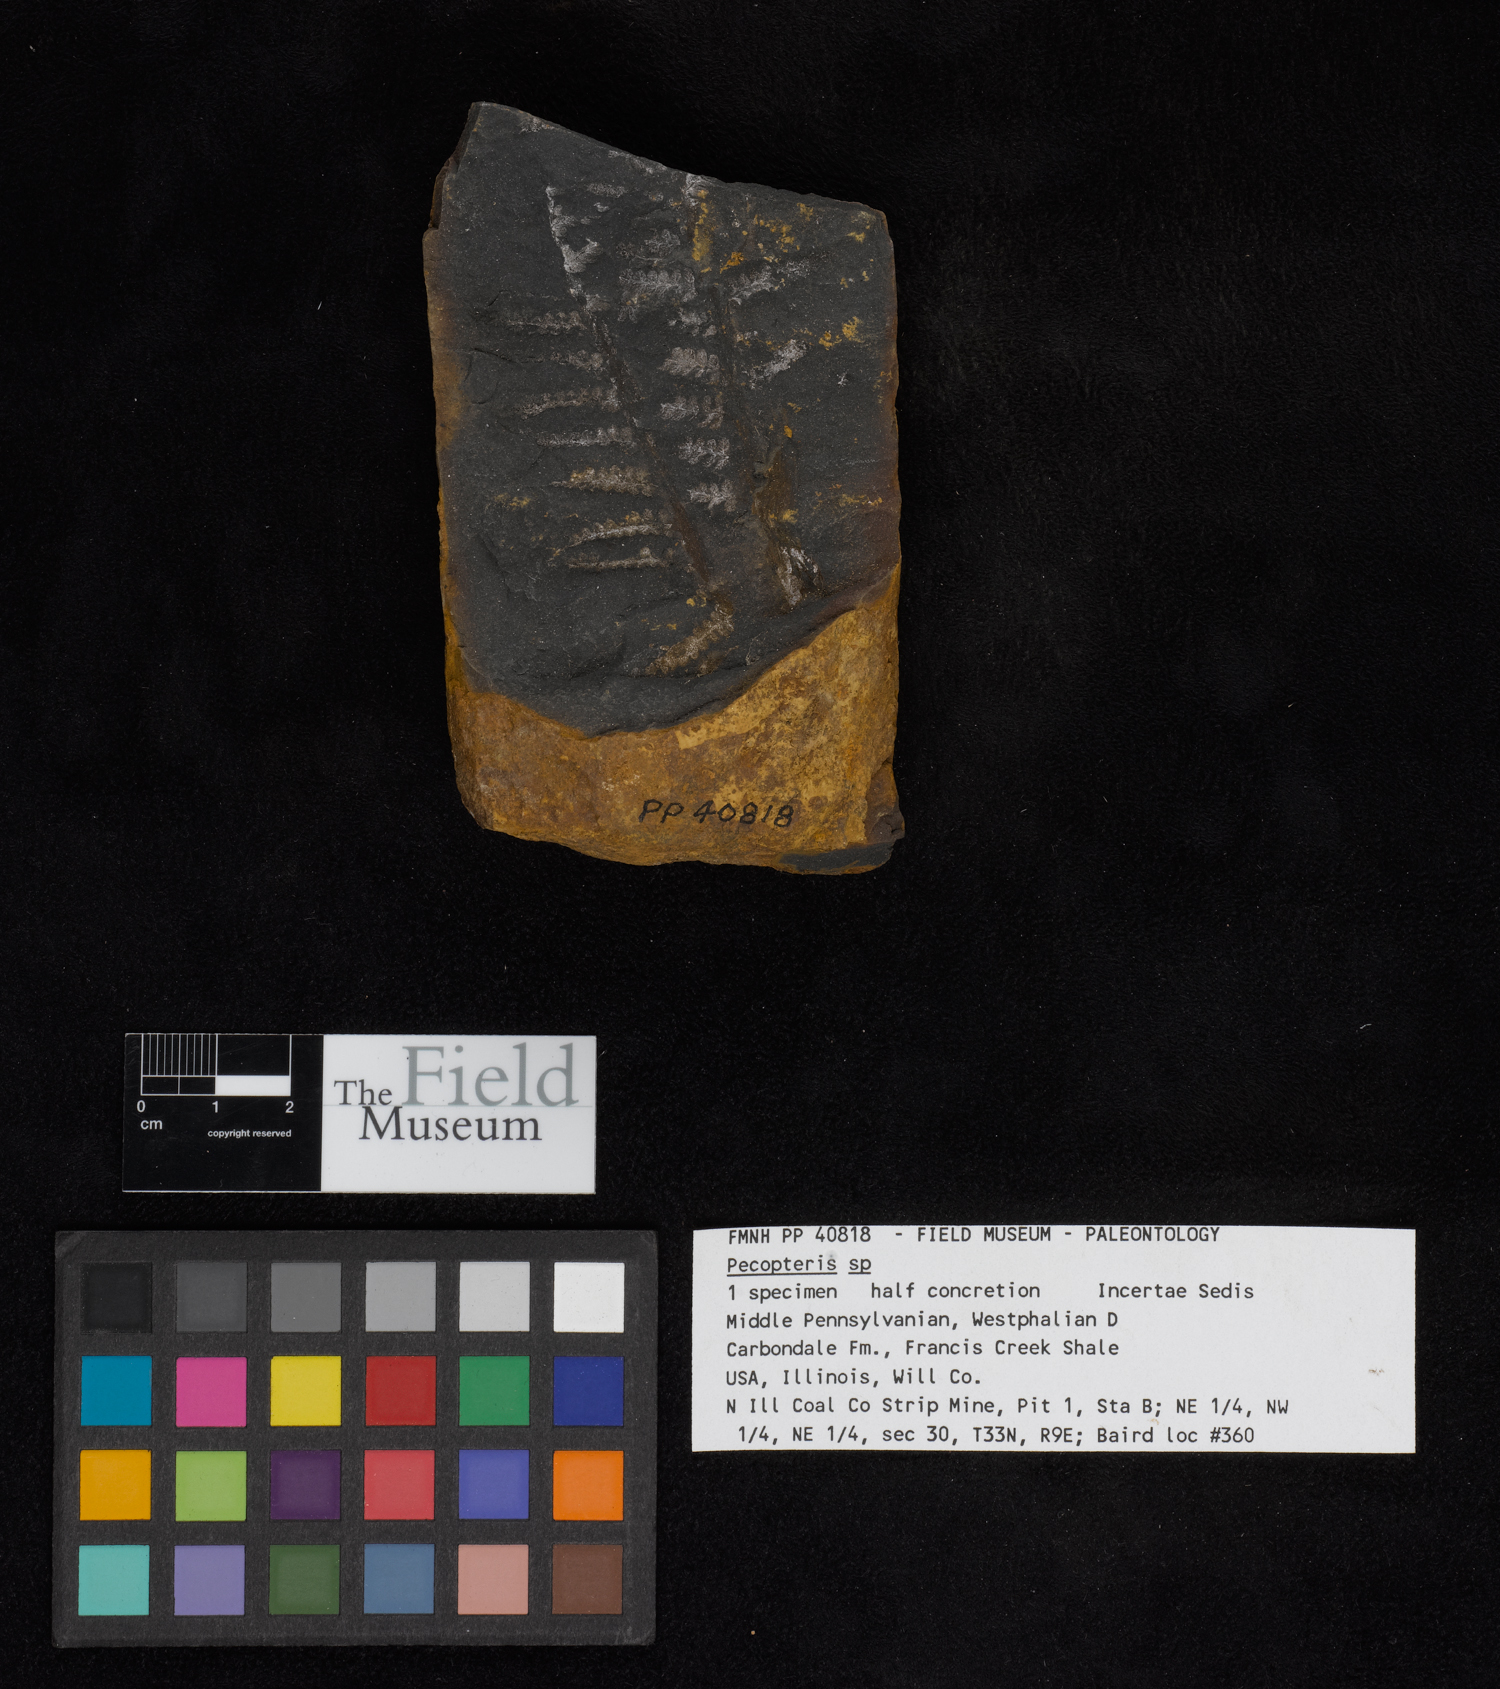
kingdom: Plantae
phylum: Tracheophyta
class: Polypodiopsida
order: Marattiales
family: Asterothecaceae
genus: Pecopteris
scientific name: Pecopteris
